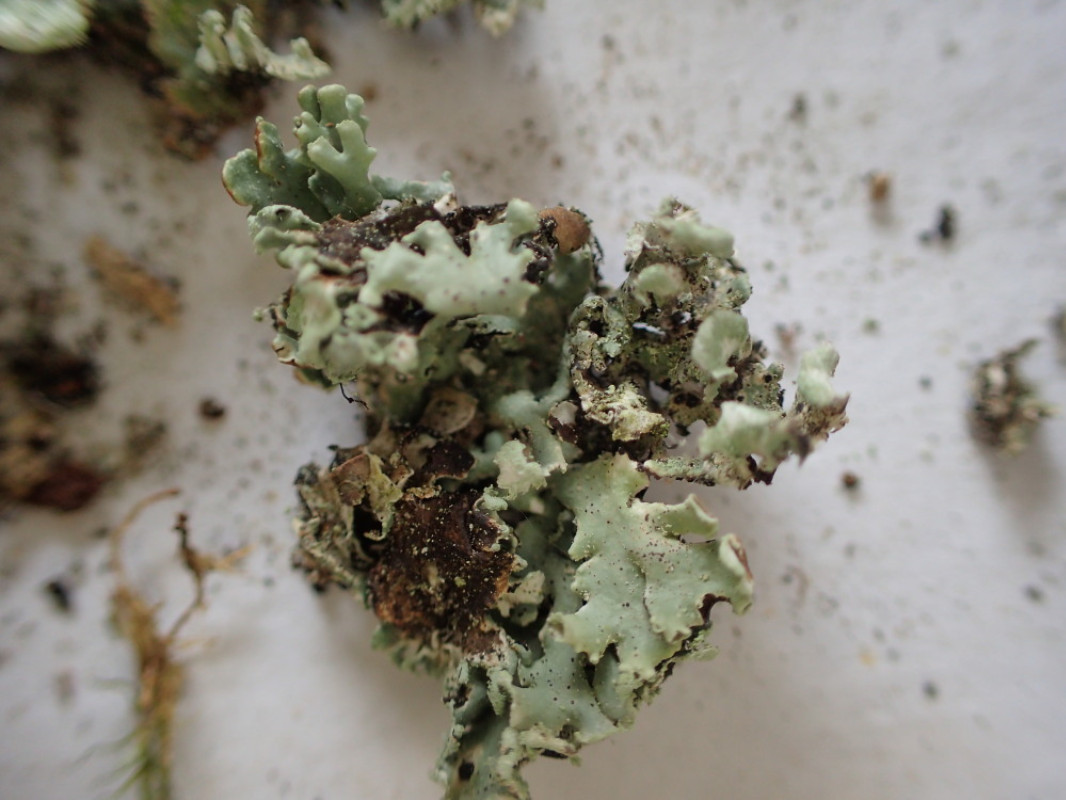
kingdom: Fungi
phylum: Ascomycota
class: Lecanoromycetes
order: Lecanorales
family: Parmeliaceae
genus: Hypogymnia
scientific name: Hypogymnia physodes
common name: almindelig kvistlav
